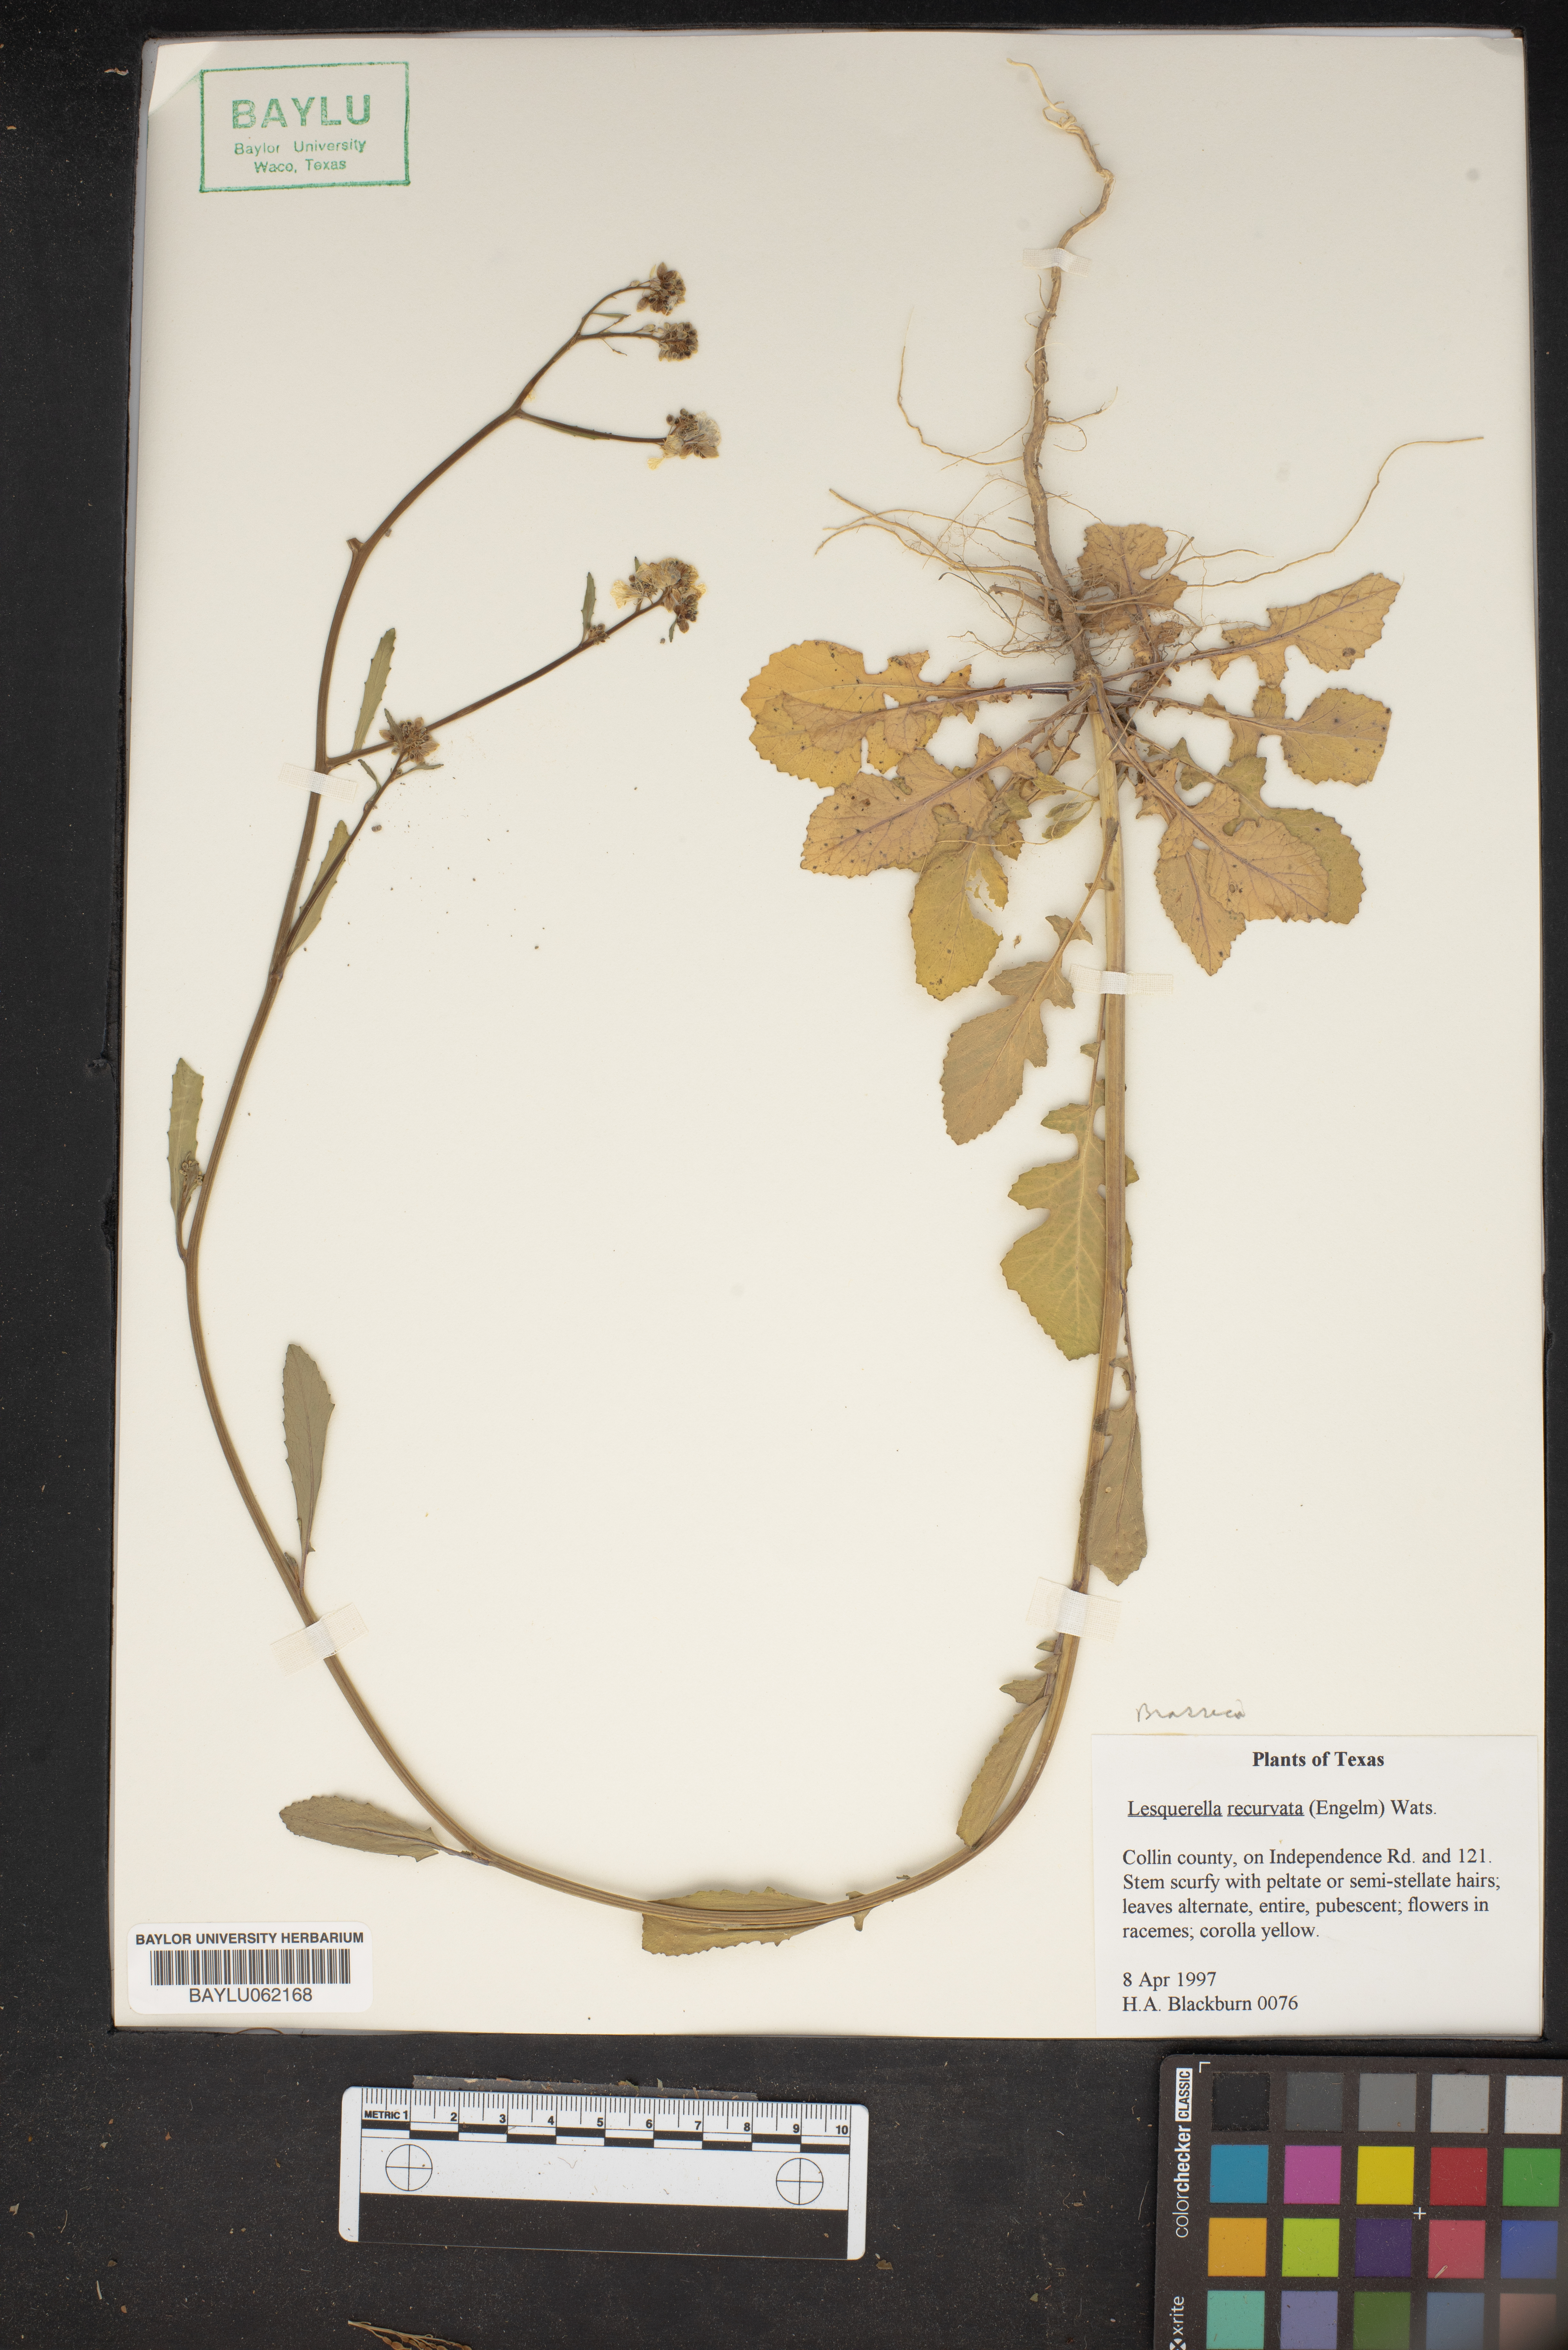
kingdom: Plantae
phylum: Tracheophyta
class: Magnoliopsida
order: Brassicales
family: Brassicaceae
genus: Physaria
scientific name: Physaria recurvata
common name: Gaslight bladderpod
